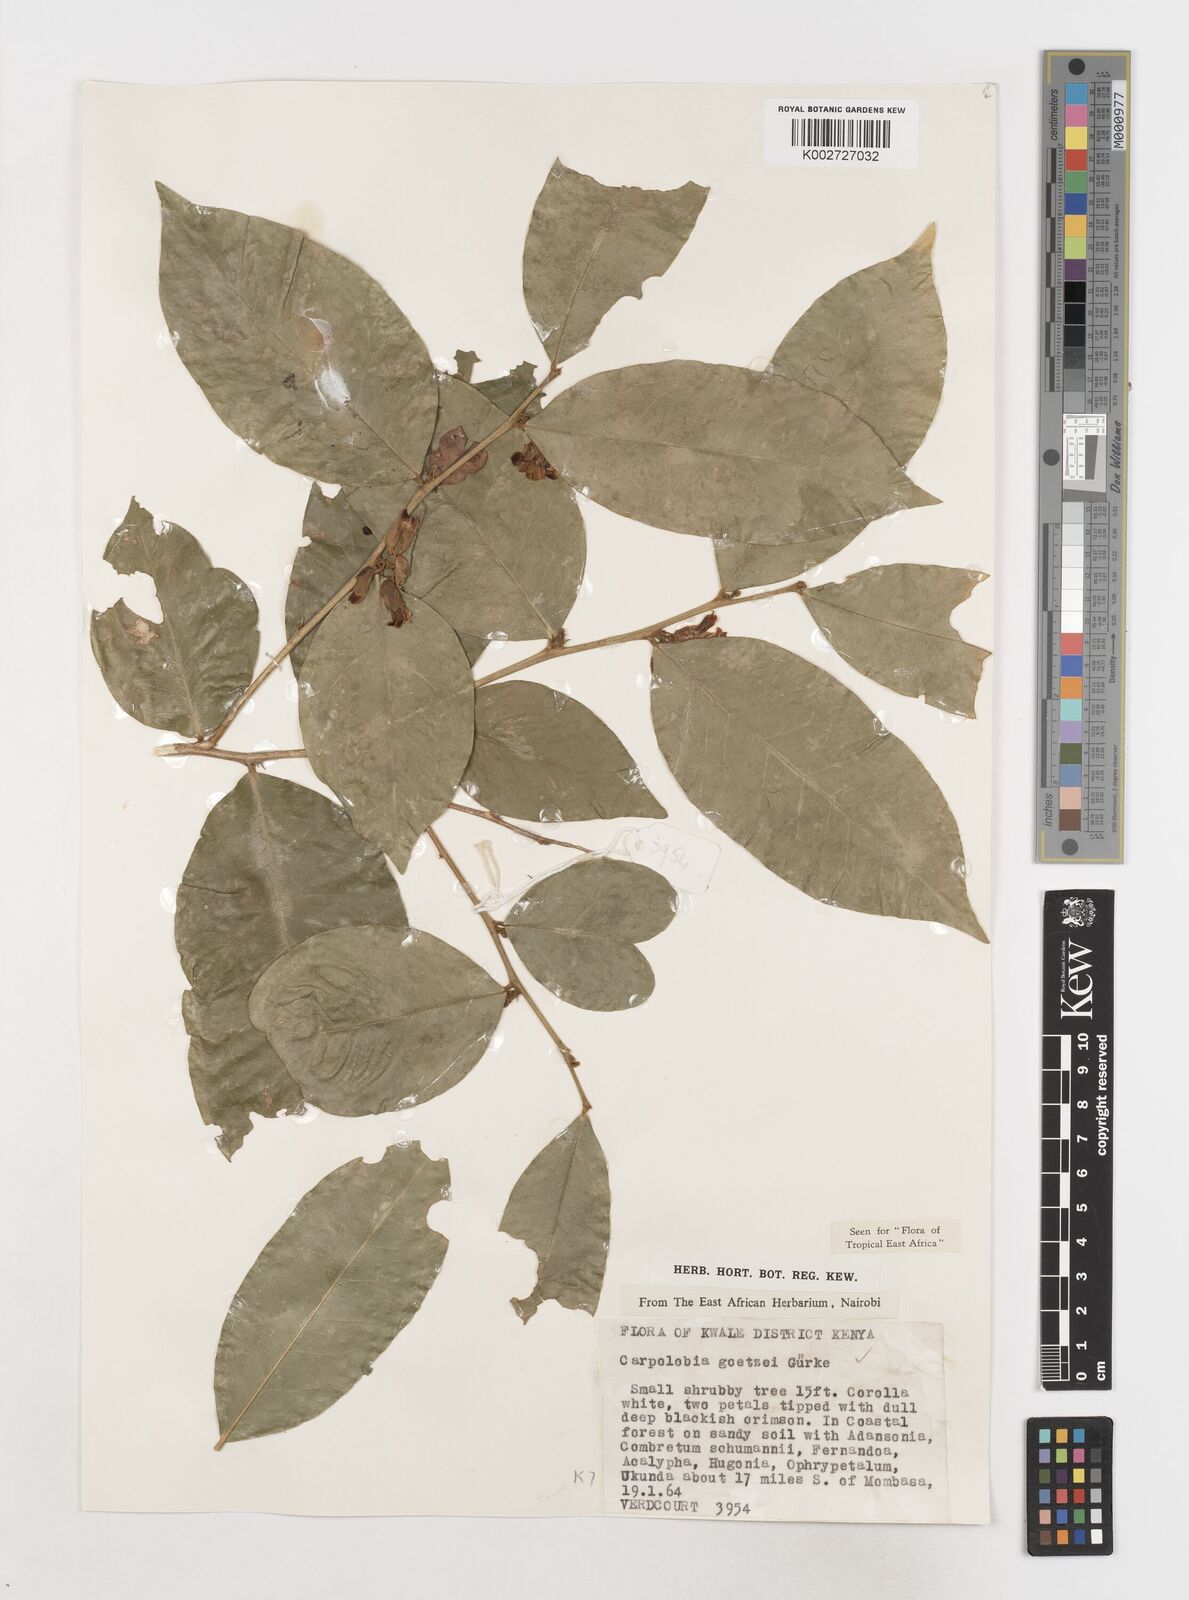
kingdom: Plantae
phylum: Tracheophyta
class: Magnoliopsida
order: Fabales
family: Polygalaceae
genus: Carpolobia
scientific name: Carpolobia goetzei
